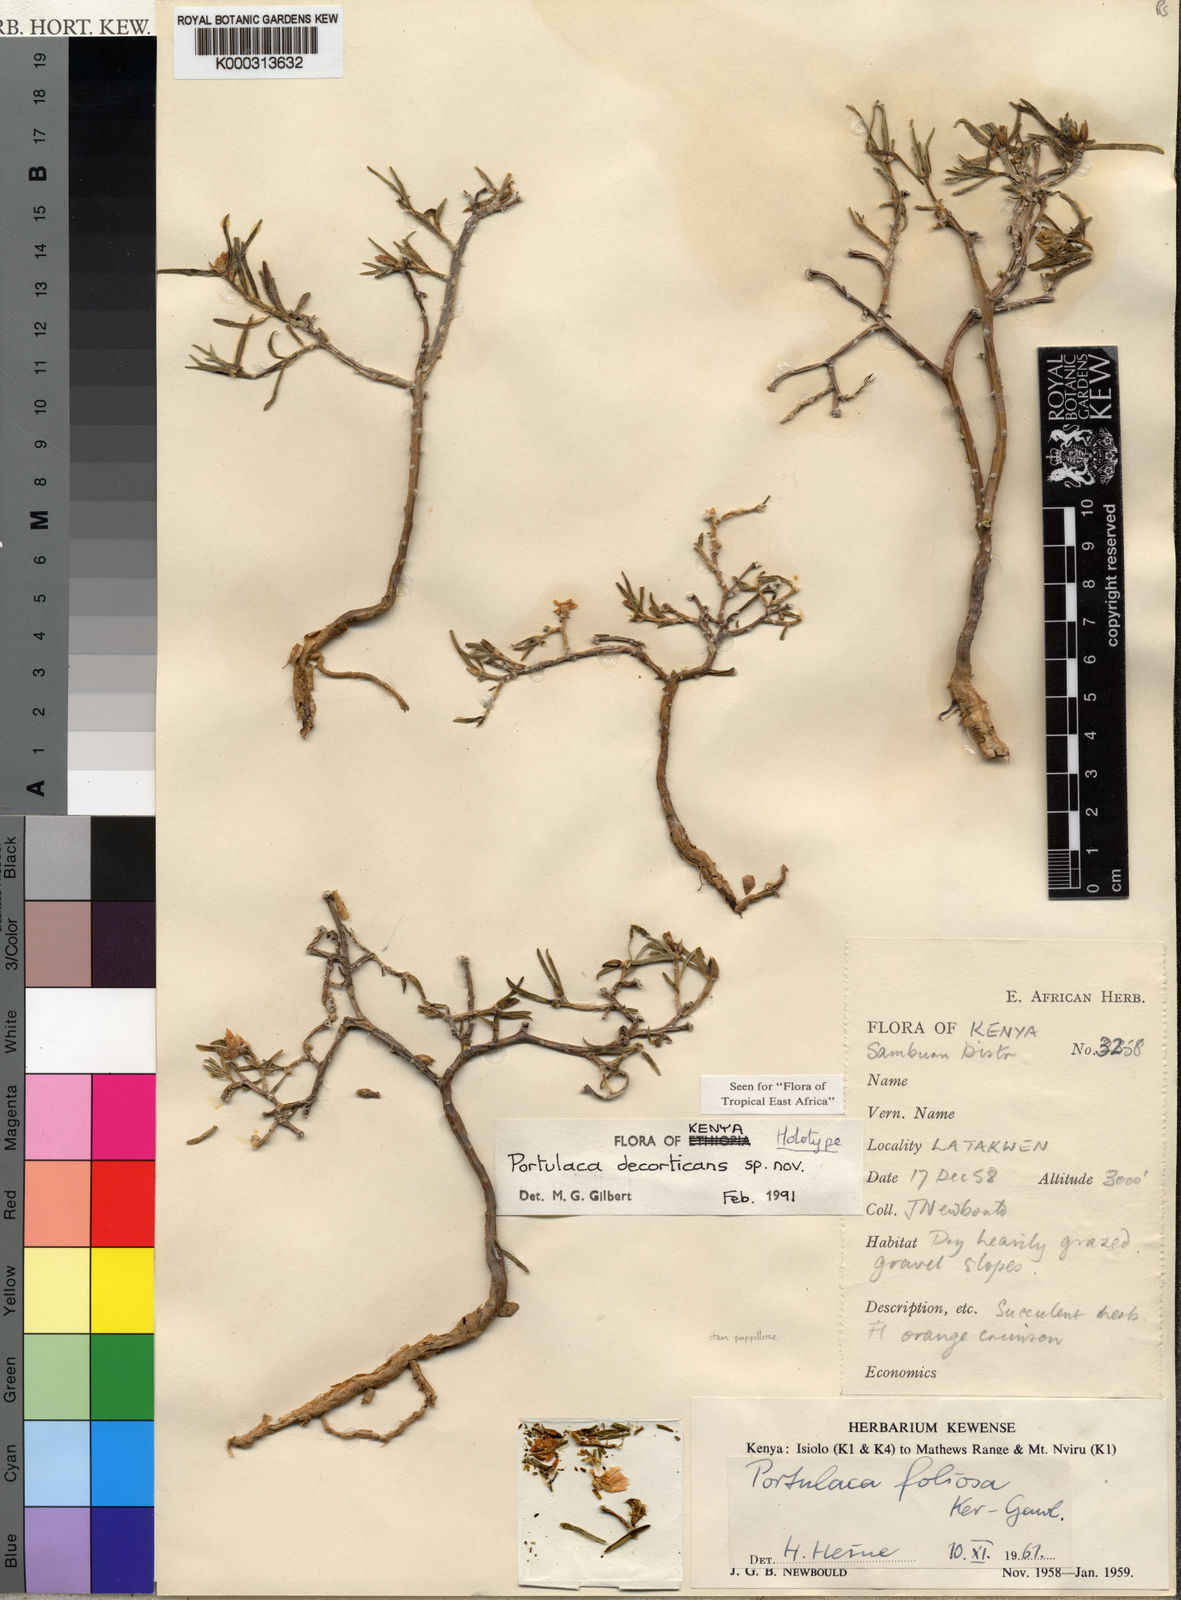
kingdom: Plantae
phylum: Tracheophyta
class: Magnoliopsida
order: Caryophyllales
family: Portulacaceae
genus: Portulaca
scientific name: Portulaca decorticans
